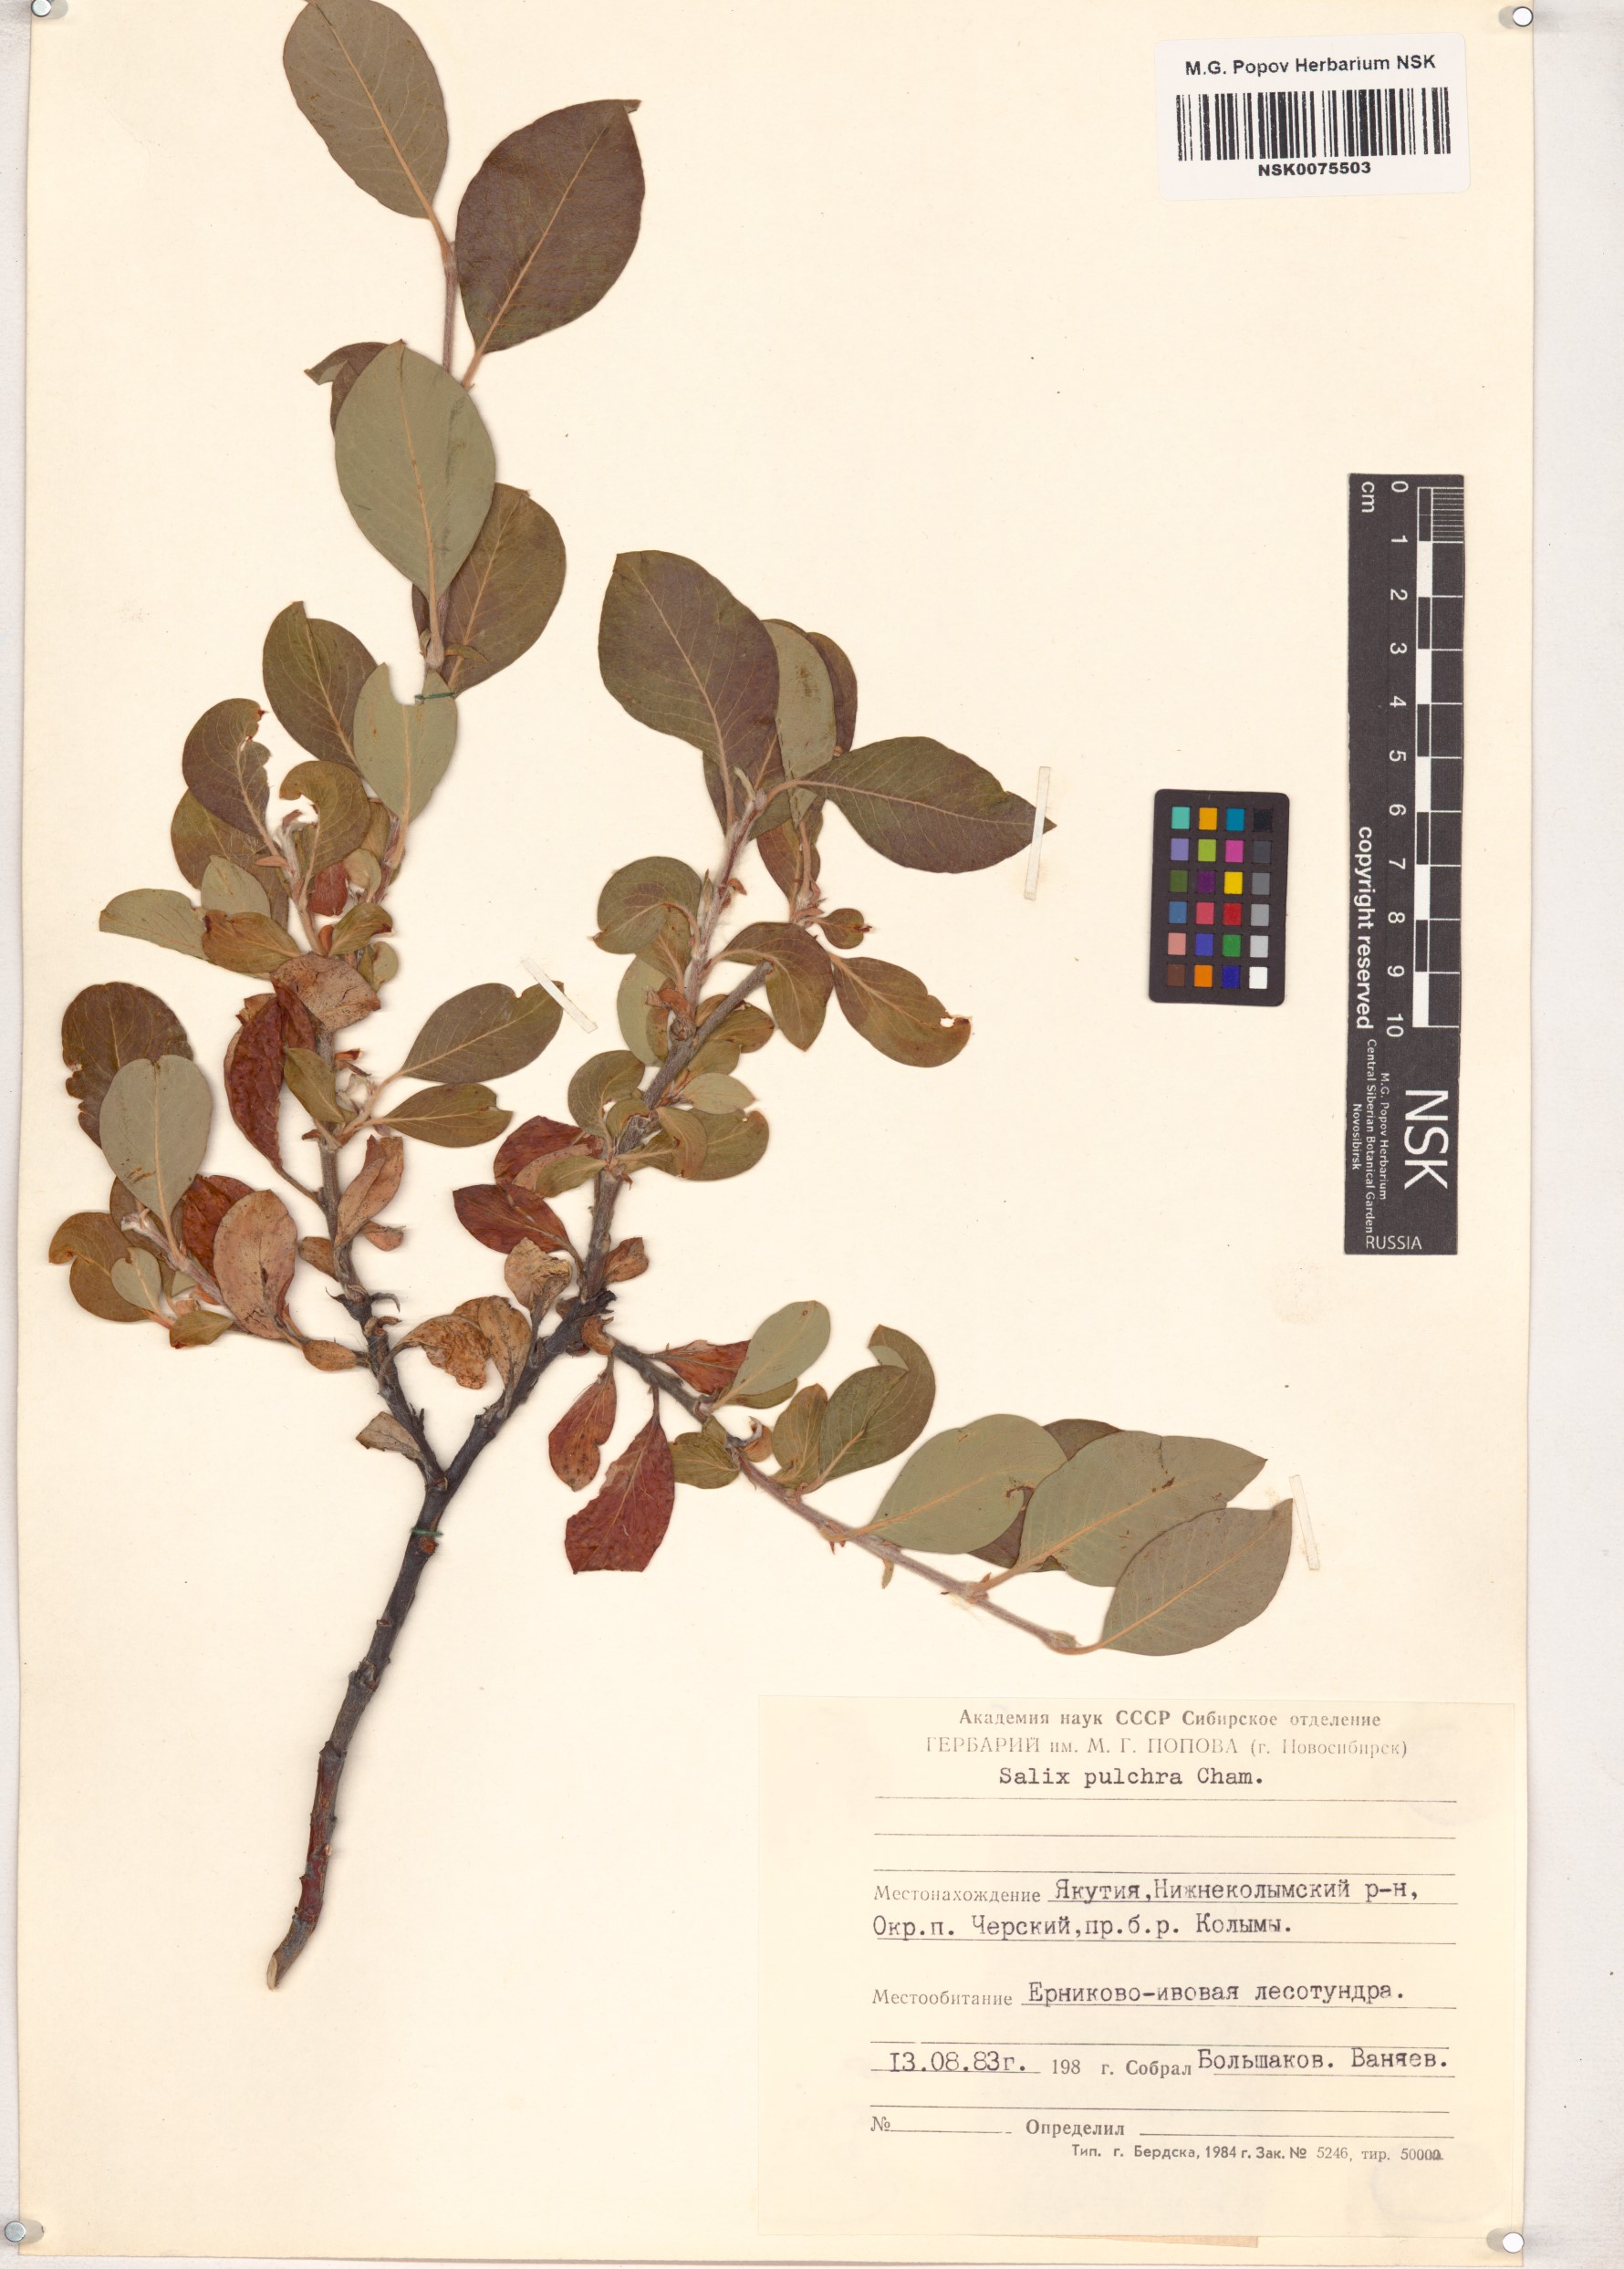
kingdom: Plantae
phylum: Tracheophyta
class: Magnoliopsida
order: Malpighiales
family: Salicaceae
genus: Salix
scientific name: Salix pulchra
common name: Diamond-leaved willow
